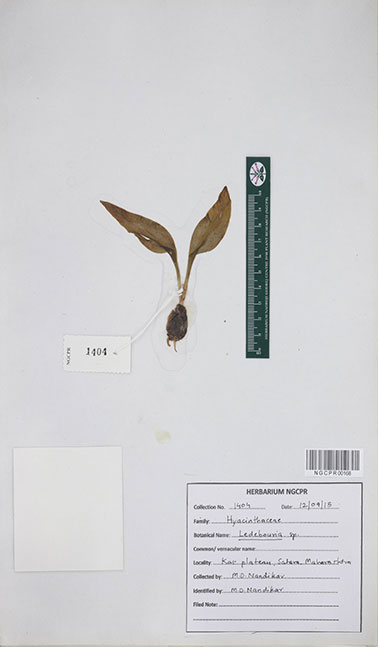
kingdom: Plantae
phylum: Tracheophyta
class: Liliopsida
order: Asparagales
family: Asparagaceae
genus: Ledebouria
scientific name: Ledebouria
